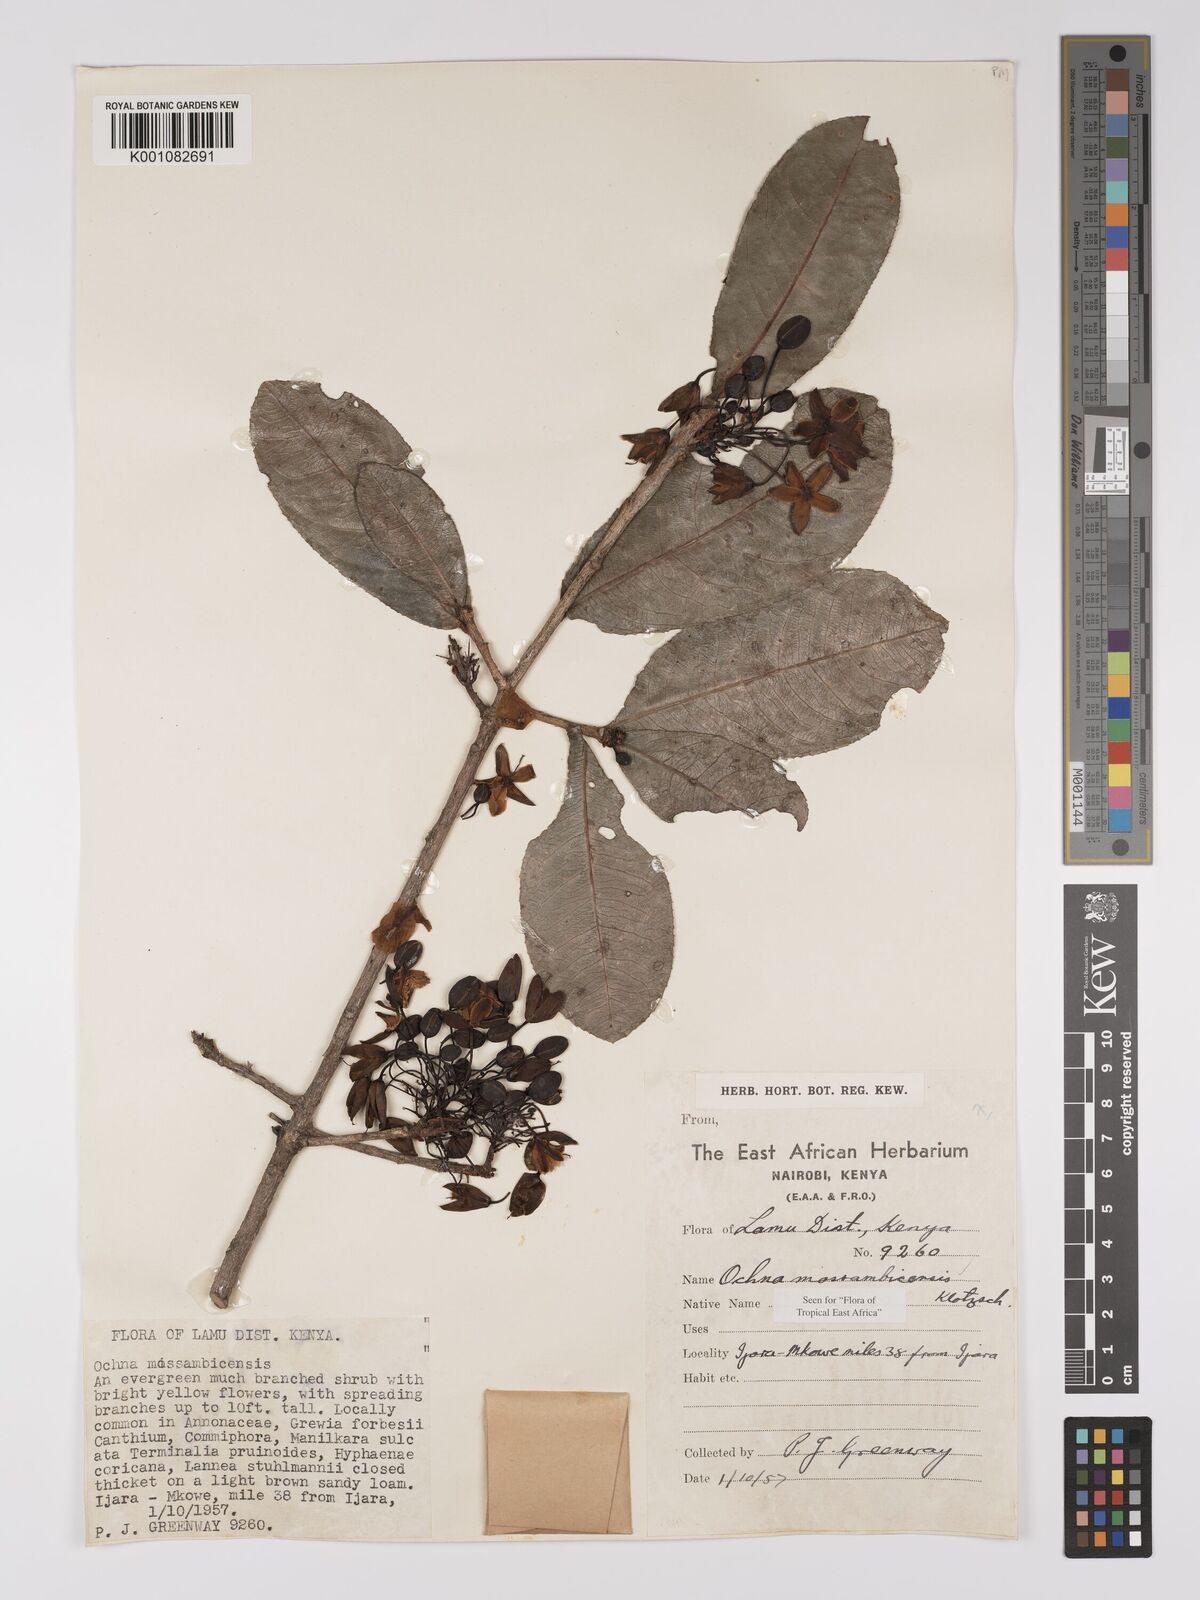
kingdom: Plantae
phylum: Tracheophyta
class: Magnoliopsida
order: Malpighiales
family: Ochnaceae
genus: Ochna
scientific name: Ochna atropurpurea
